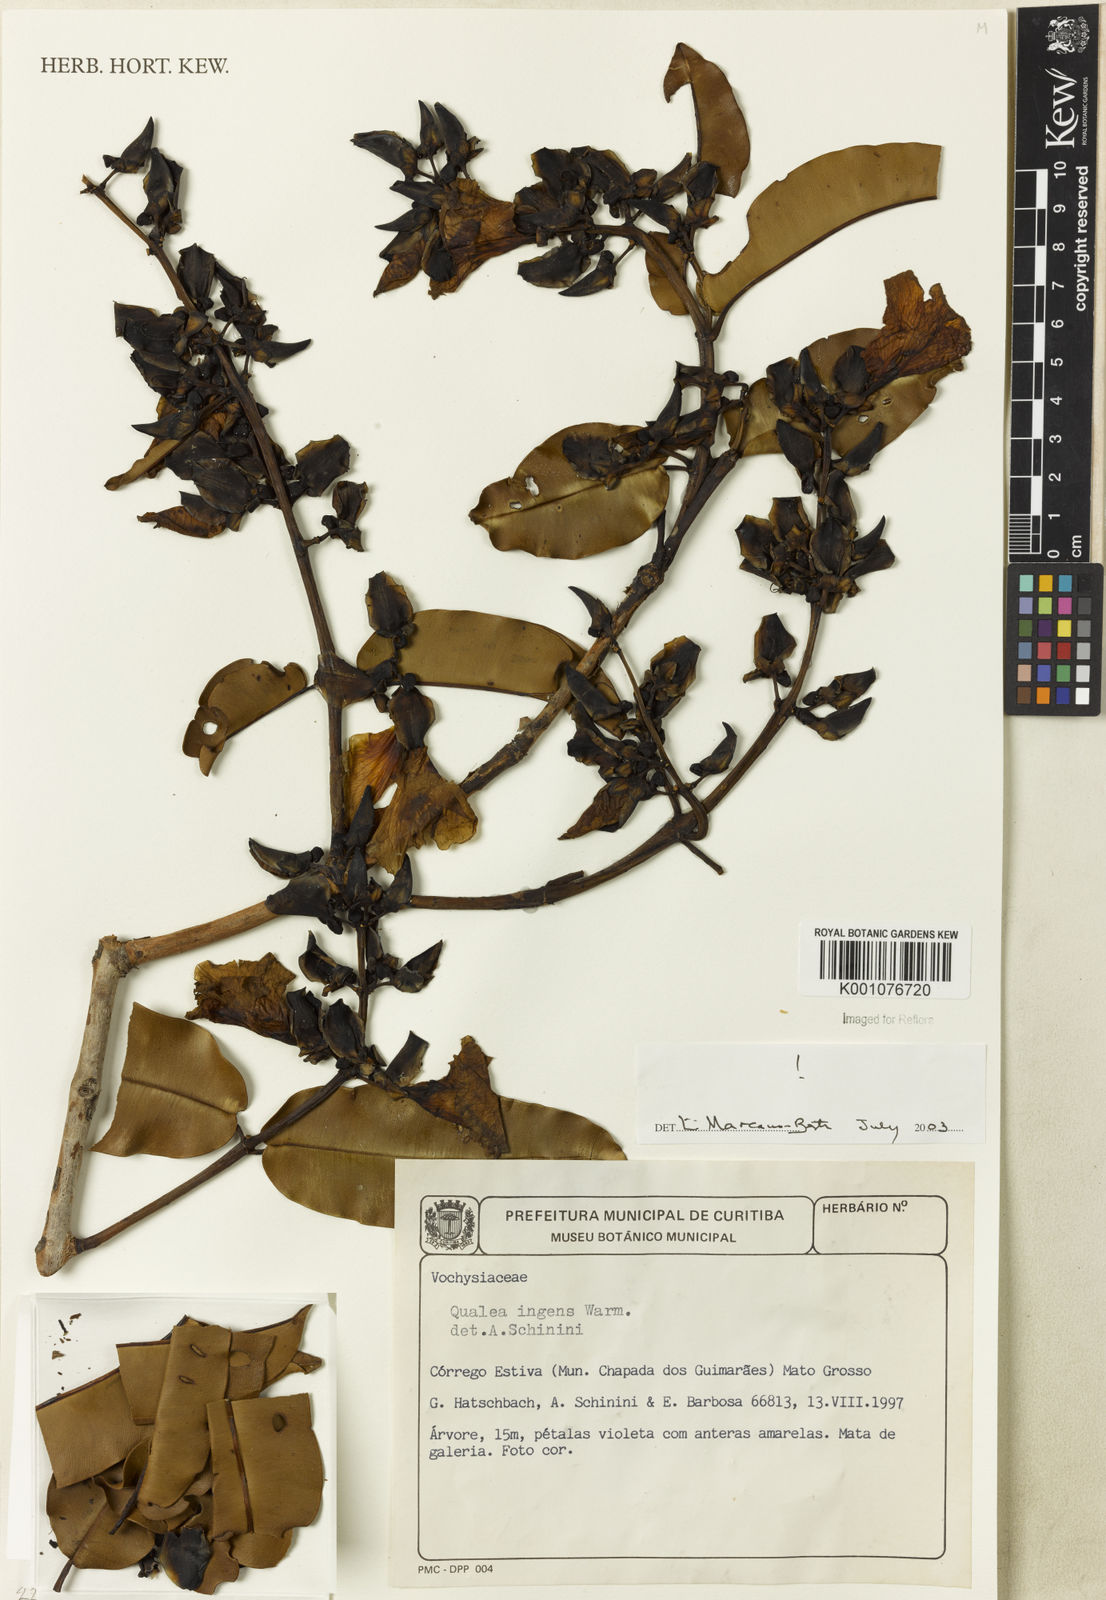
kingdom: Plantae
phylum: Tracheophyta
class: Magnoliopsida
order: Myrtales
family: Vochysiaceae
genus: Qualea
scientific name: Qualea ingens
